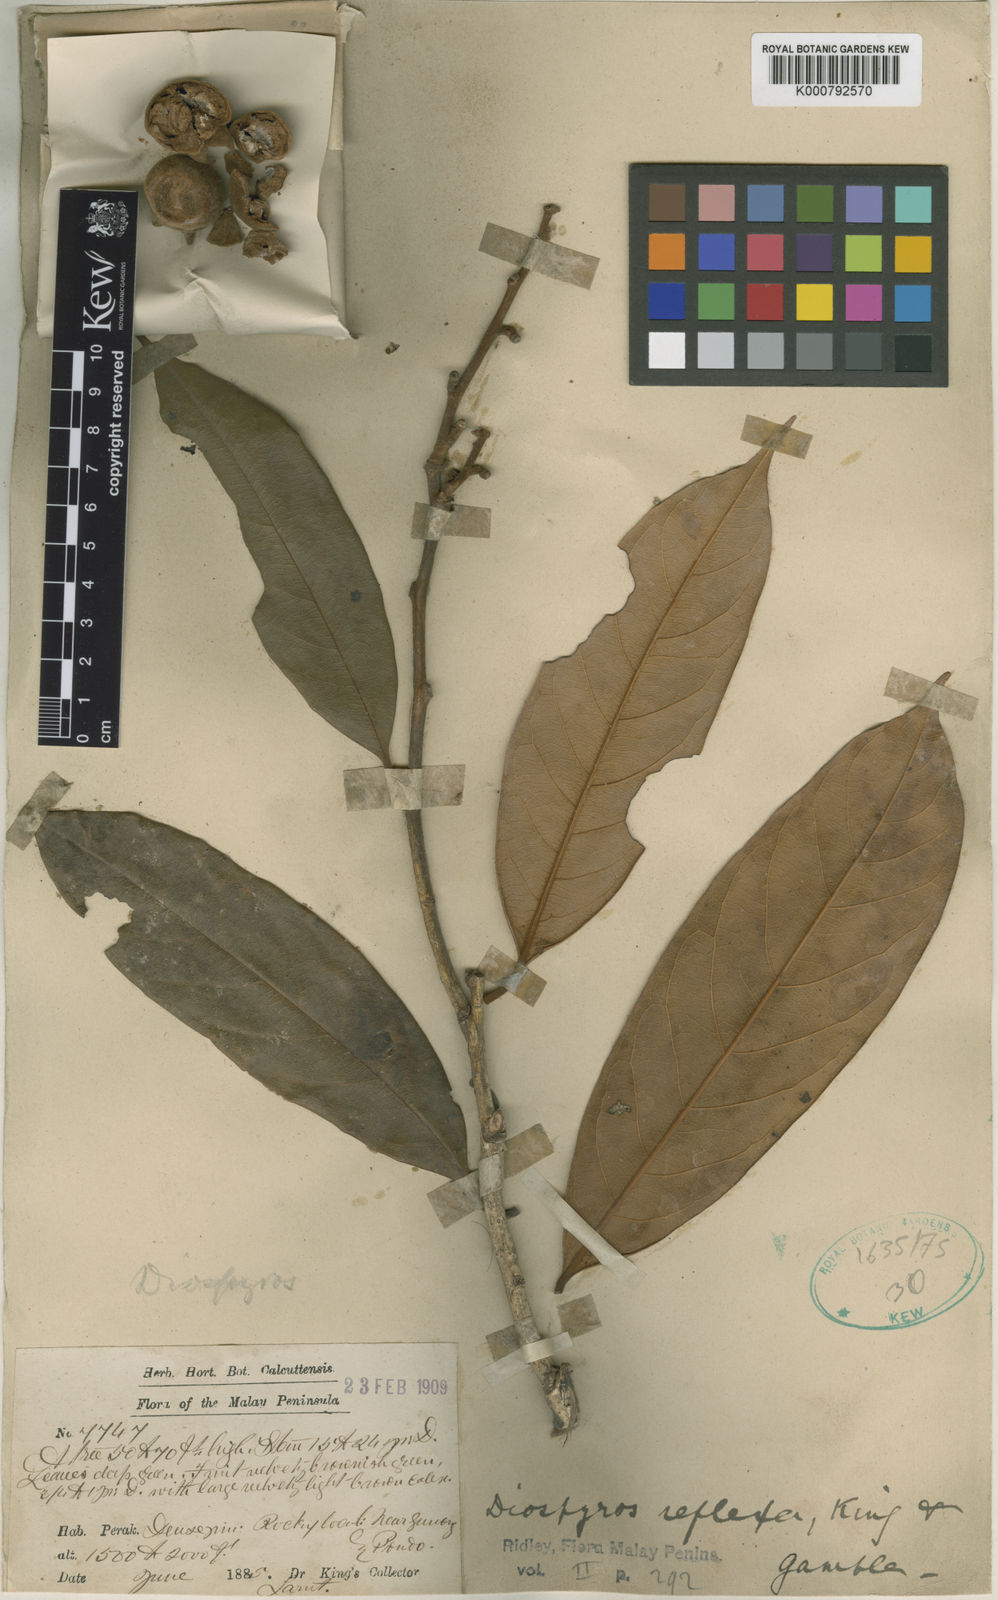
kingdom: Plantae
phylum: Tracheophyta
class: Magnoliopsida
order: Ericales
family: Ebenaceae
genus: Diospyros
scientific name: Diospyros pyrrhocarpa
